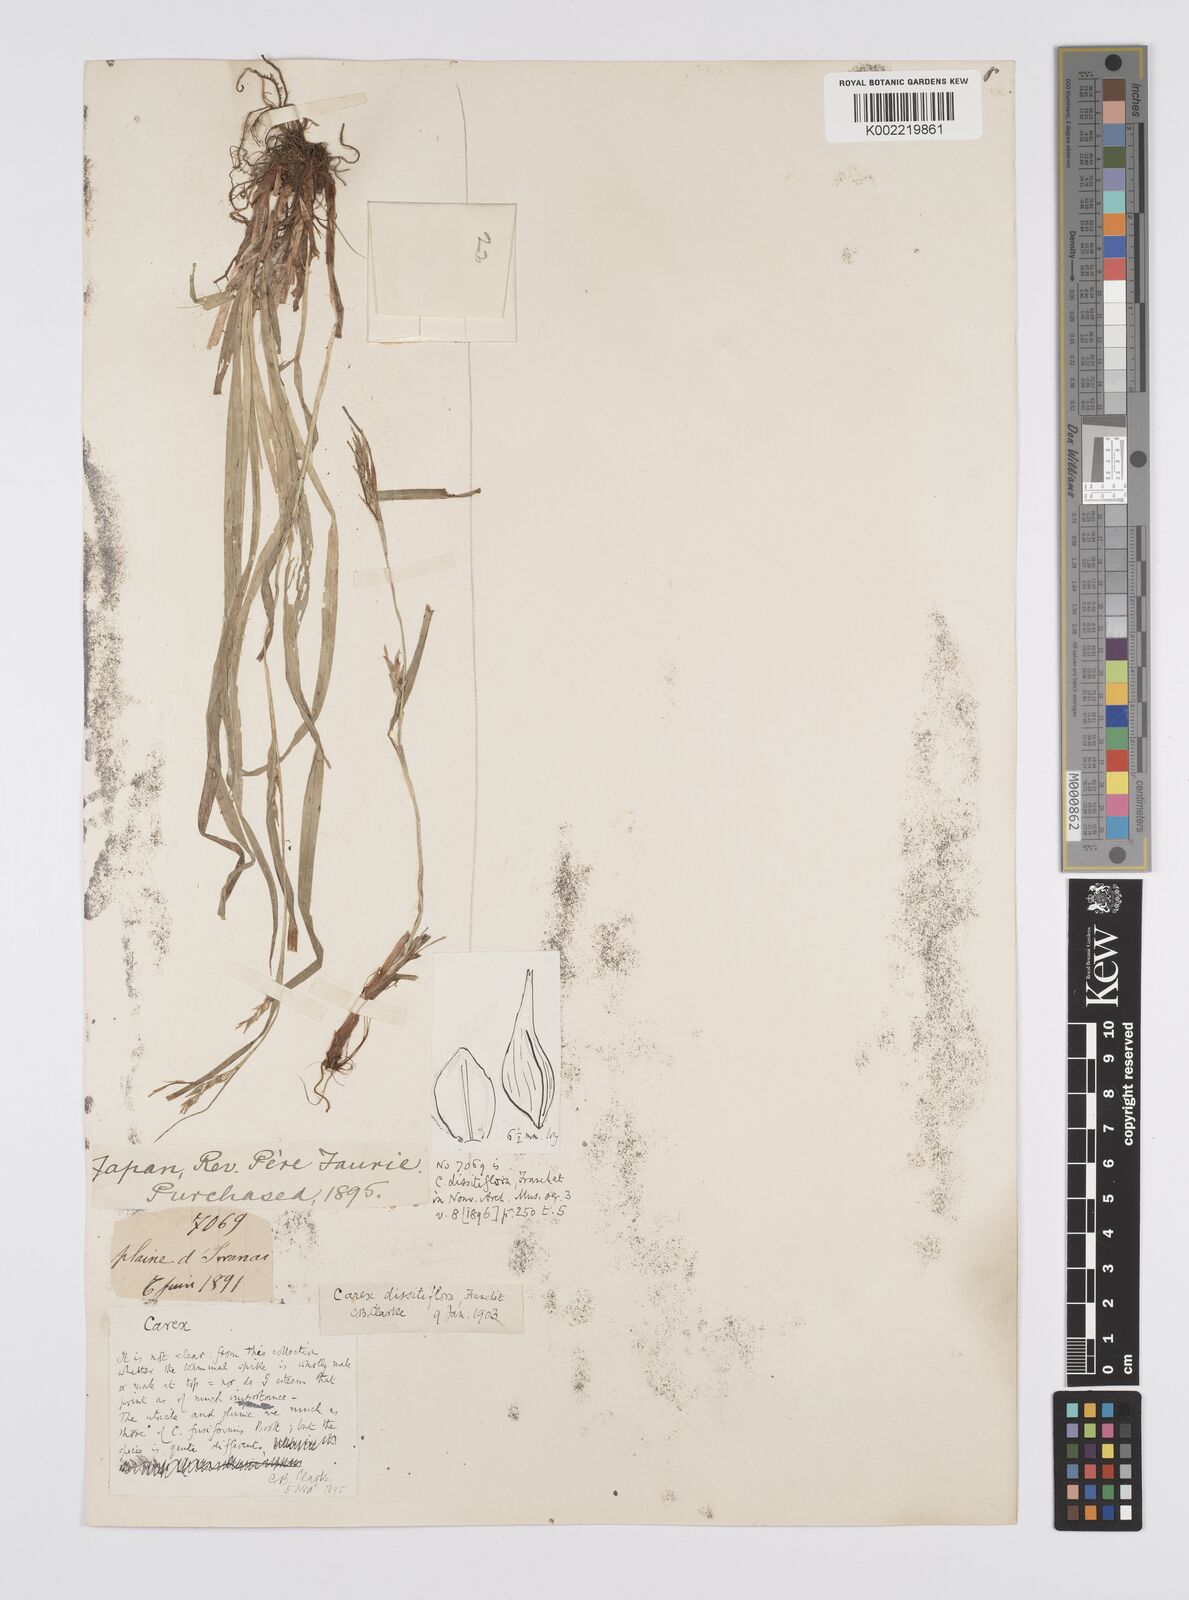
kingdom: Plantae
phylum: Tracheophyta
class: Liliopsida
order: Poales
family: Cyperaceae
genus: Carex
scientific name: Carex dissitiflora
